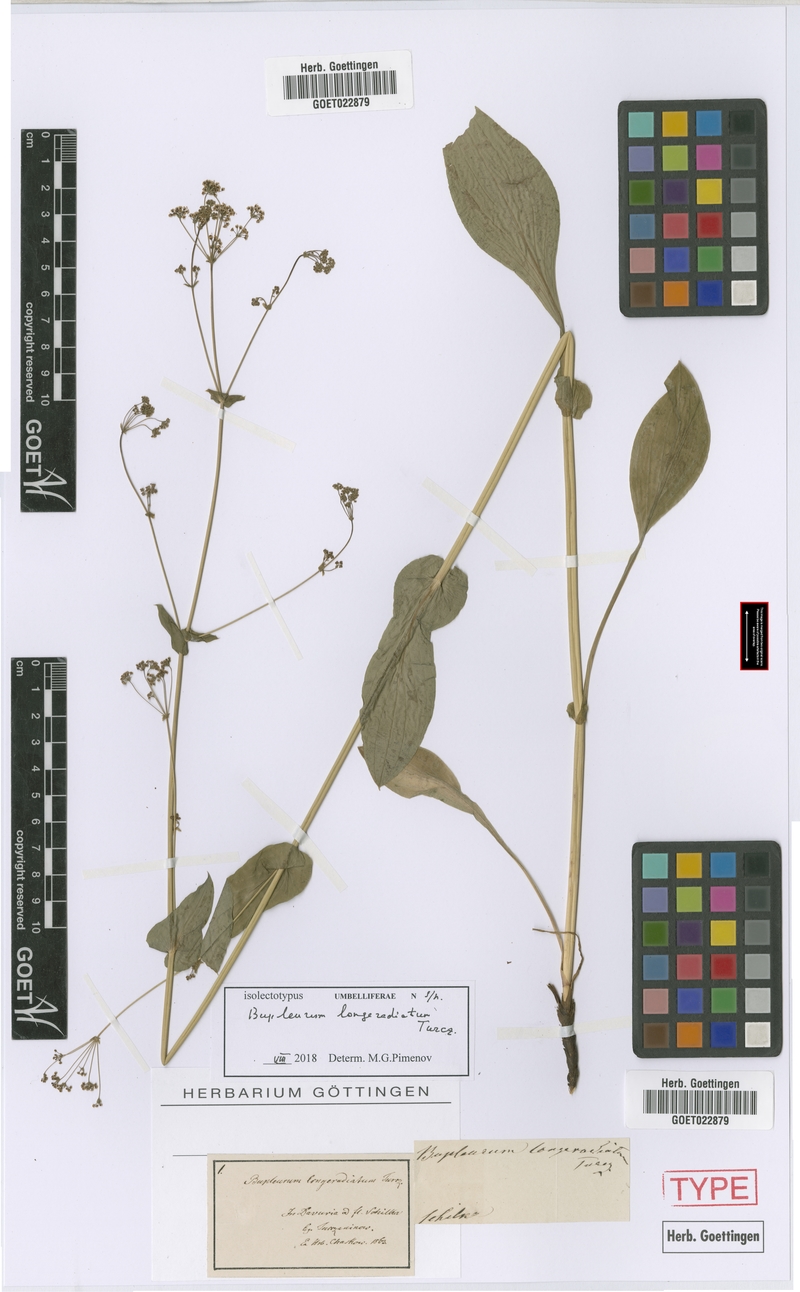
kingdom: Plantae
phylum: Tracheophyta
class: Magnoliopsida
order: Apiales
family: Apiaceae
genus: Bupleurum
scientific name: Bupleurum longiradiatum
